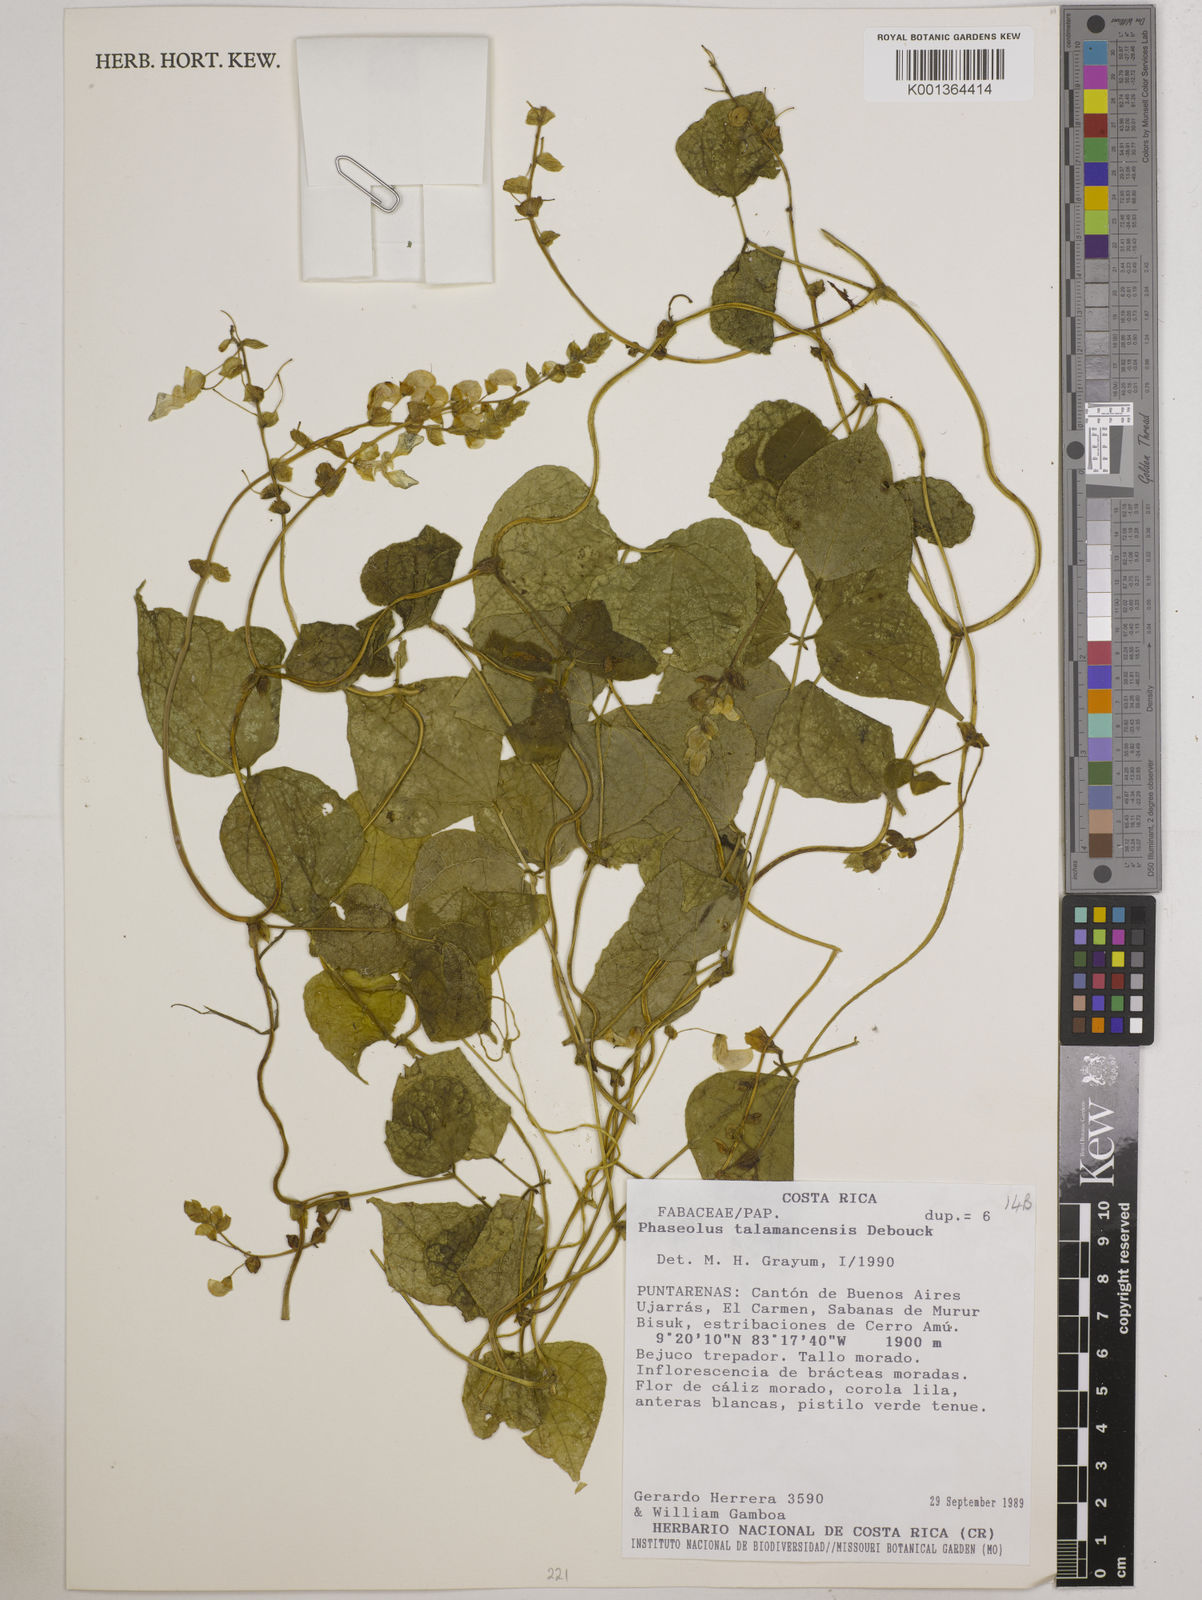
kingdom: Plantae
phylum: Tracheophyta
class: Magnoliopsida
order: Fabales
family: Fabaceae
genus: Phaseolus
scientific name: Phaseolus talamancensis
